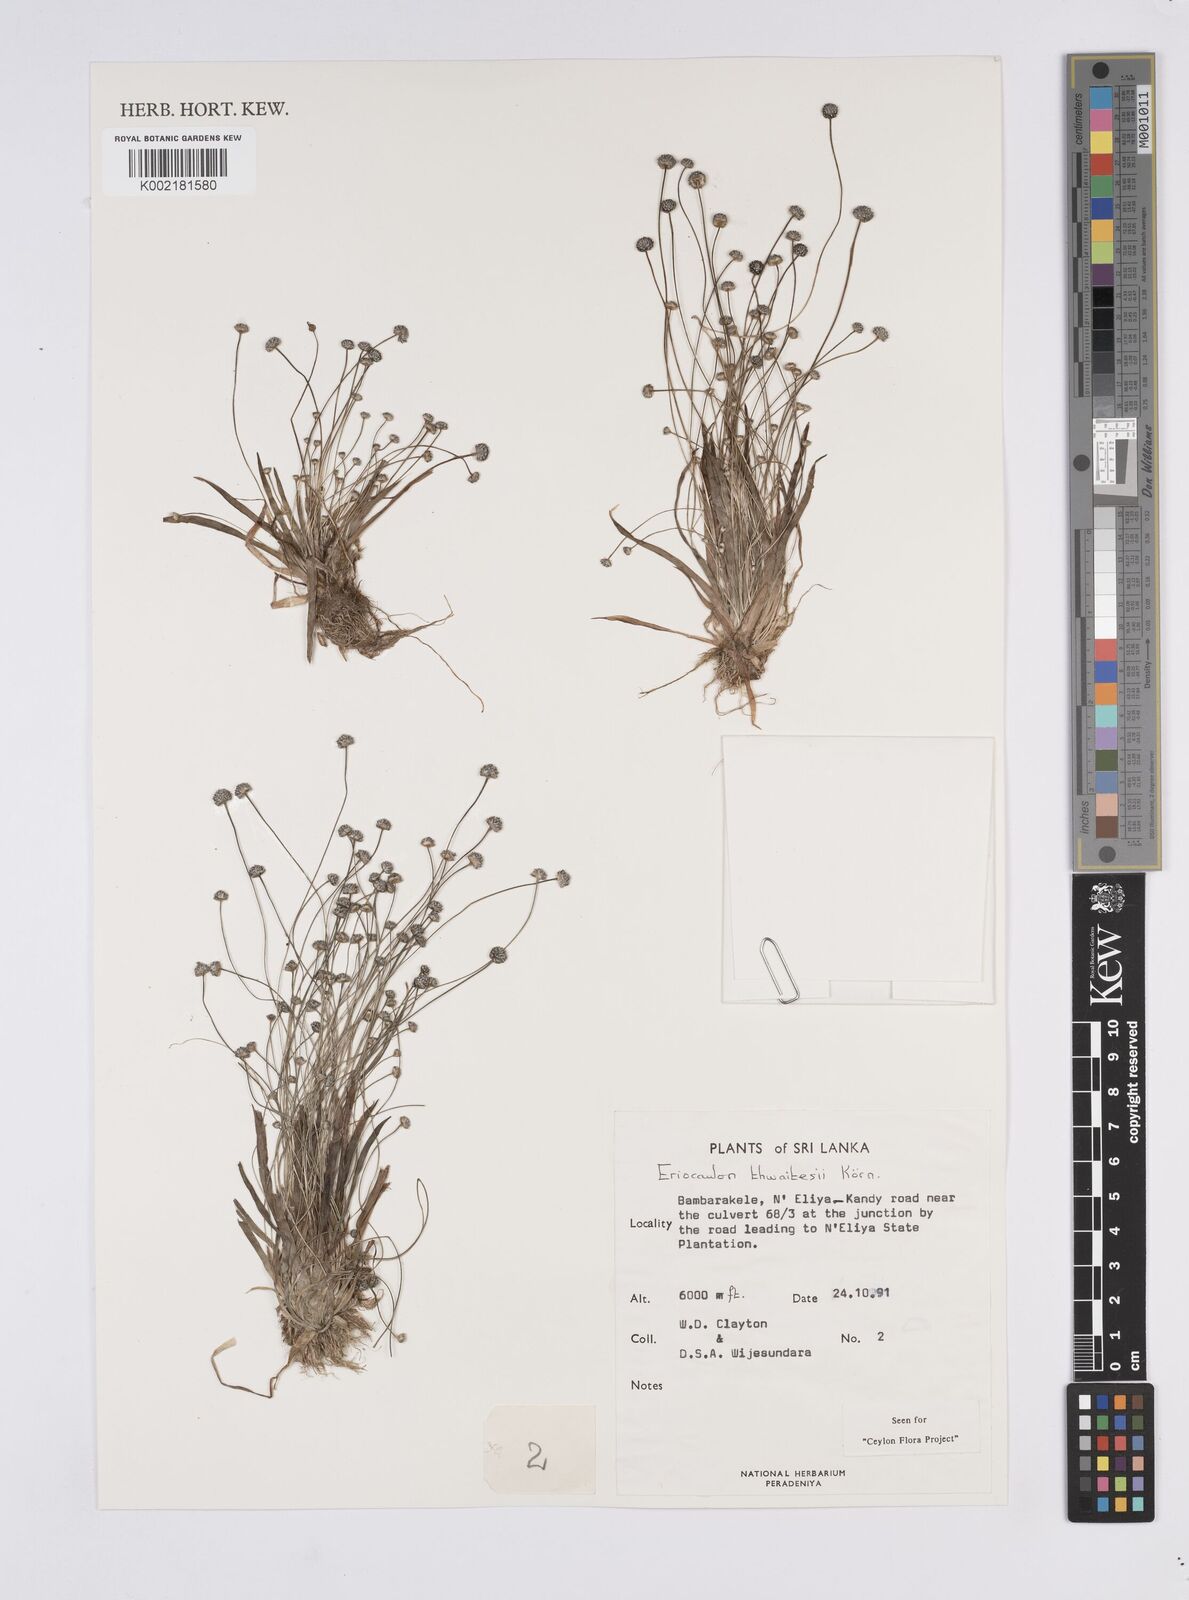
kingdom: Plantae
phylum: Tracheophyta
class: Liliopsida
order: Poales
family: Eriocaulaceae
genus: Eriocaulon
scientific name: Eriocaulon thwaitesii
